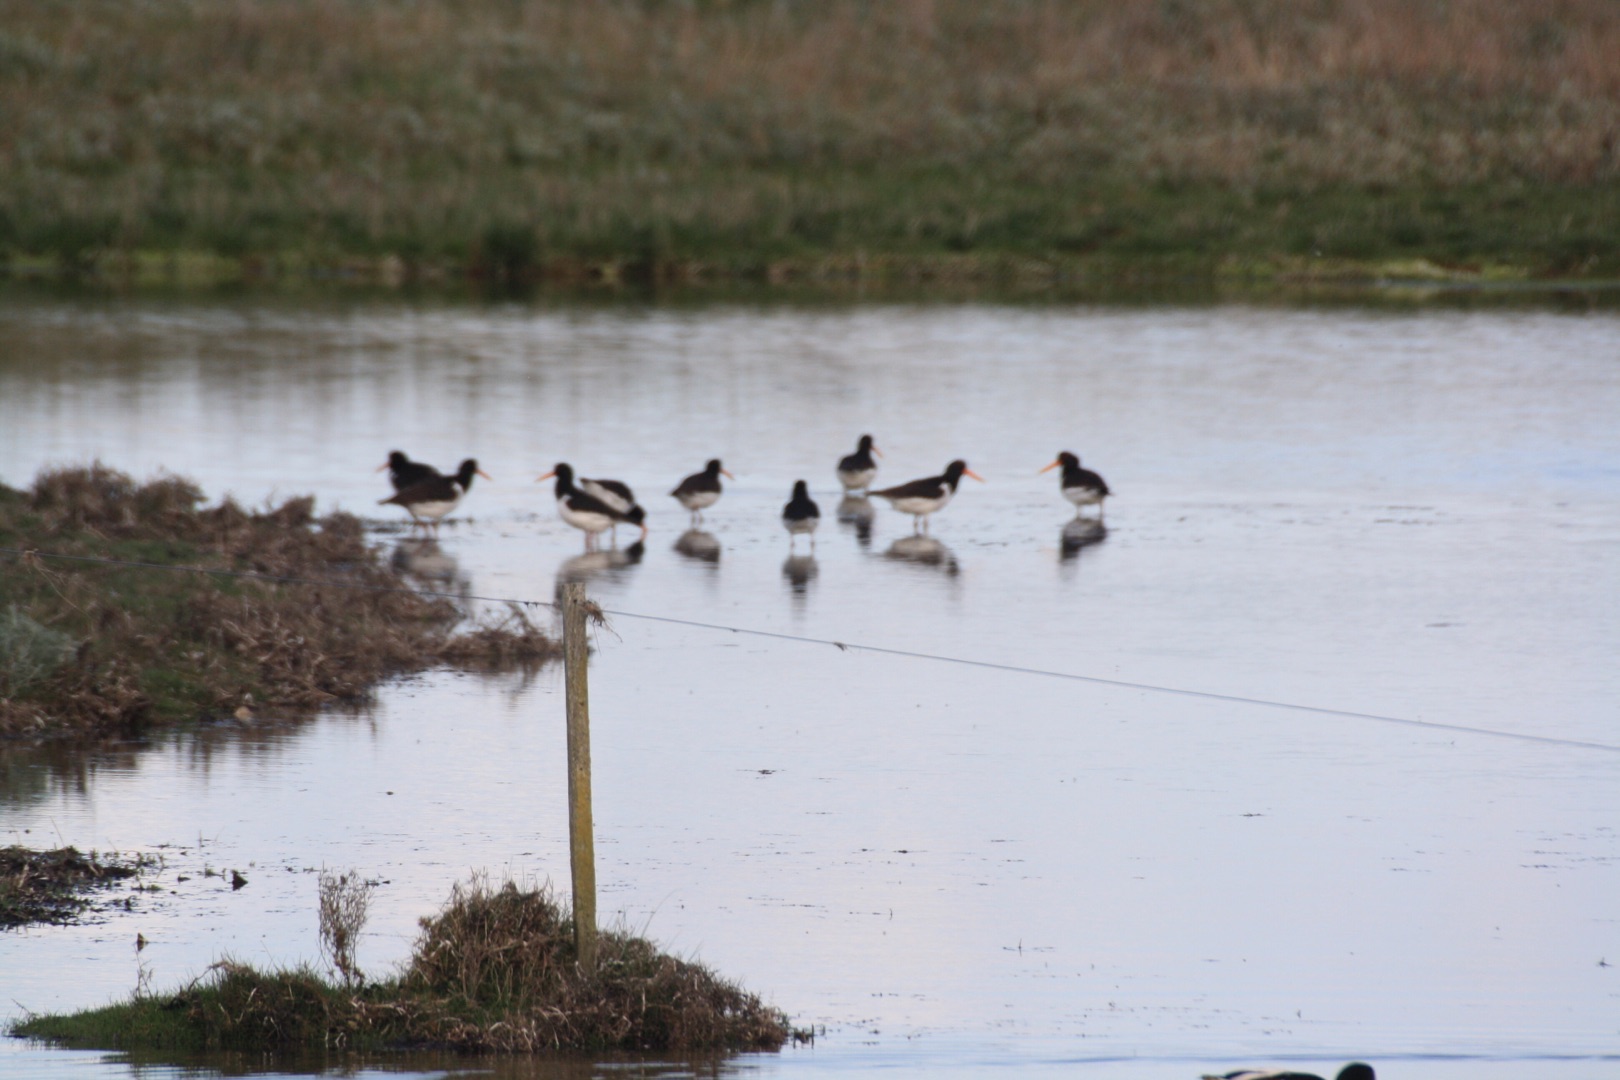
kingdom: Animalia
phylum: Chordata
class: Aves
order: Charadriiformes
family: Haematopodidae
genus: Haematopus
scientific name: Haematopus ostralegus
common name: Strandskade
